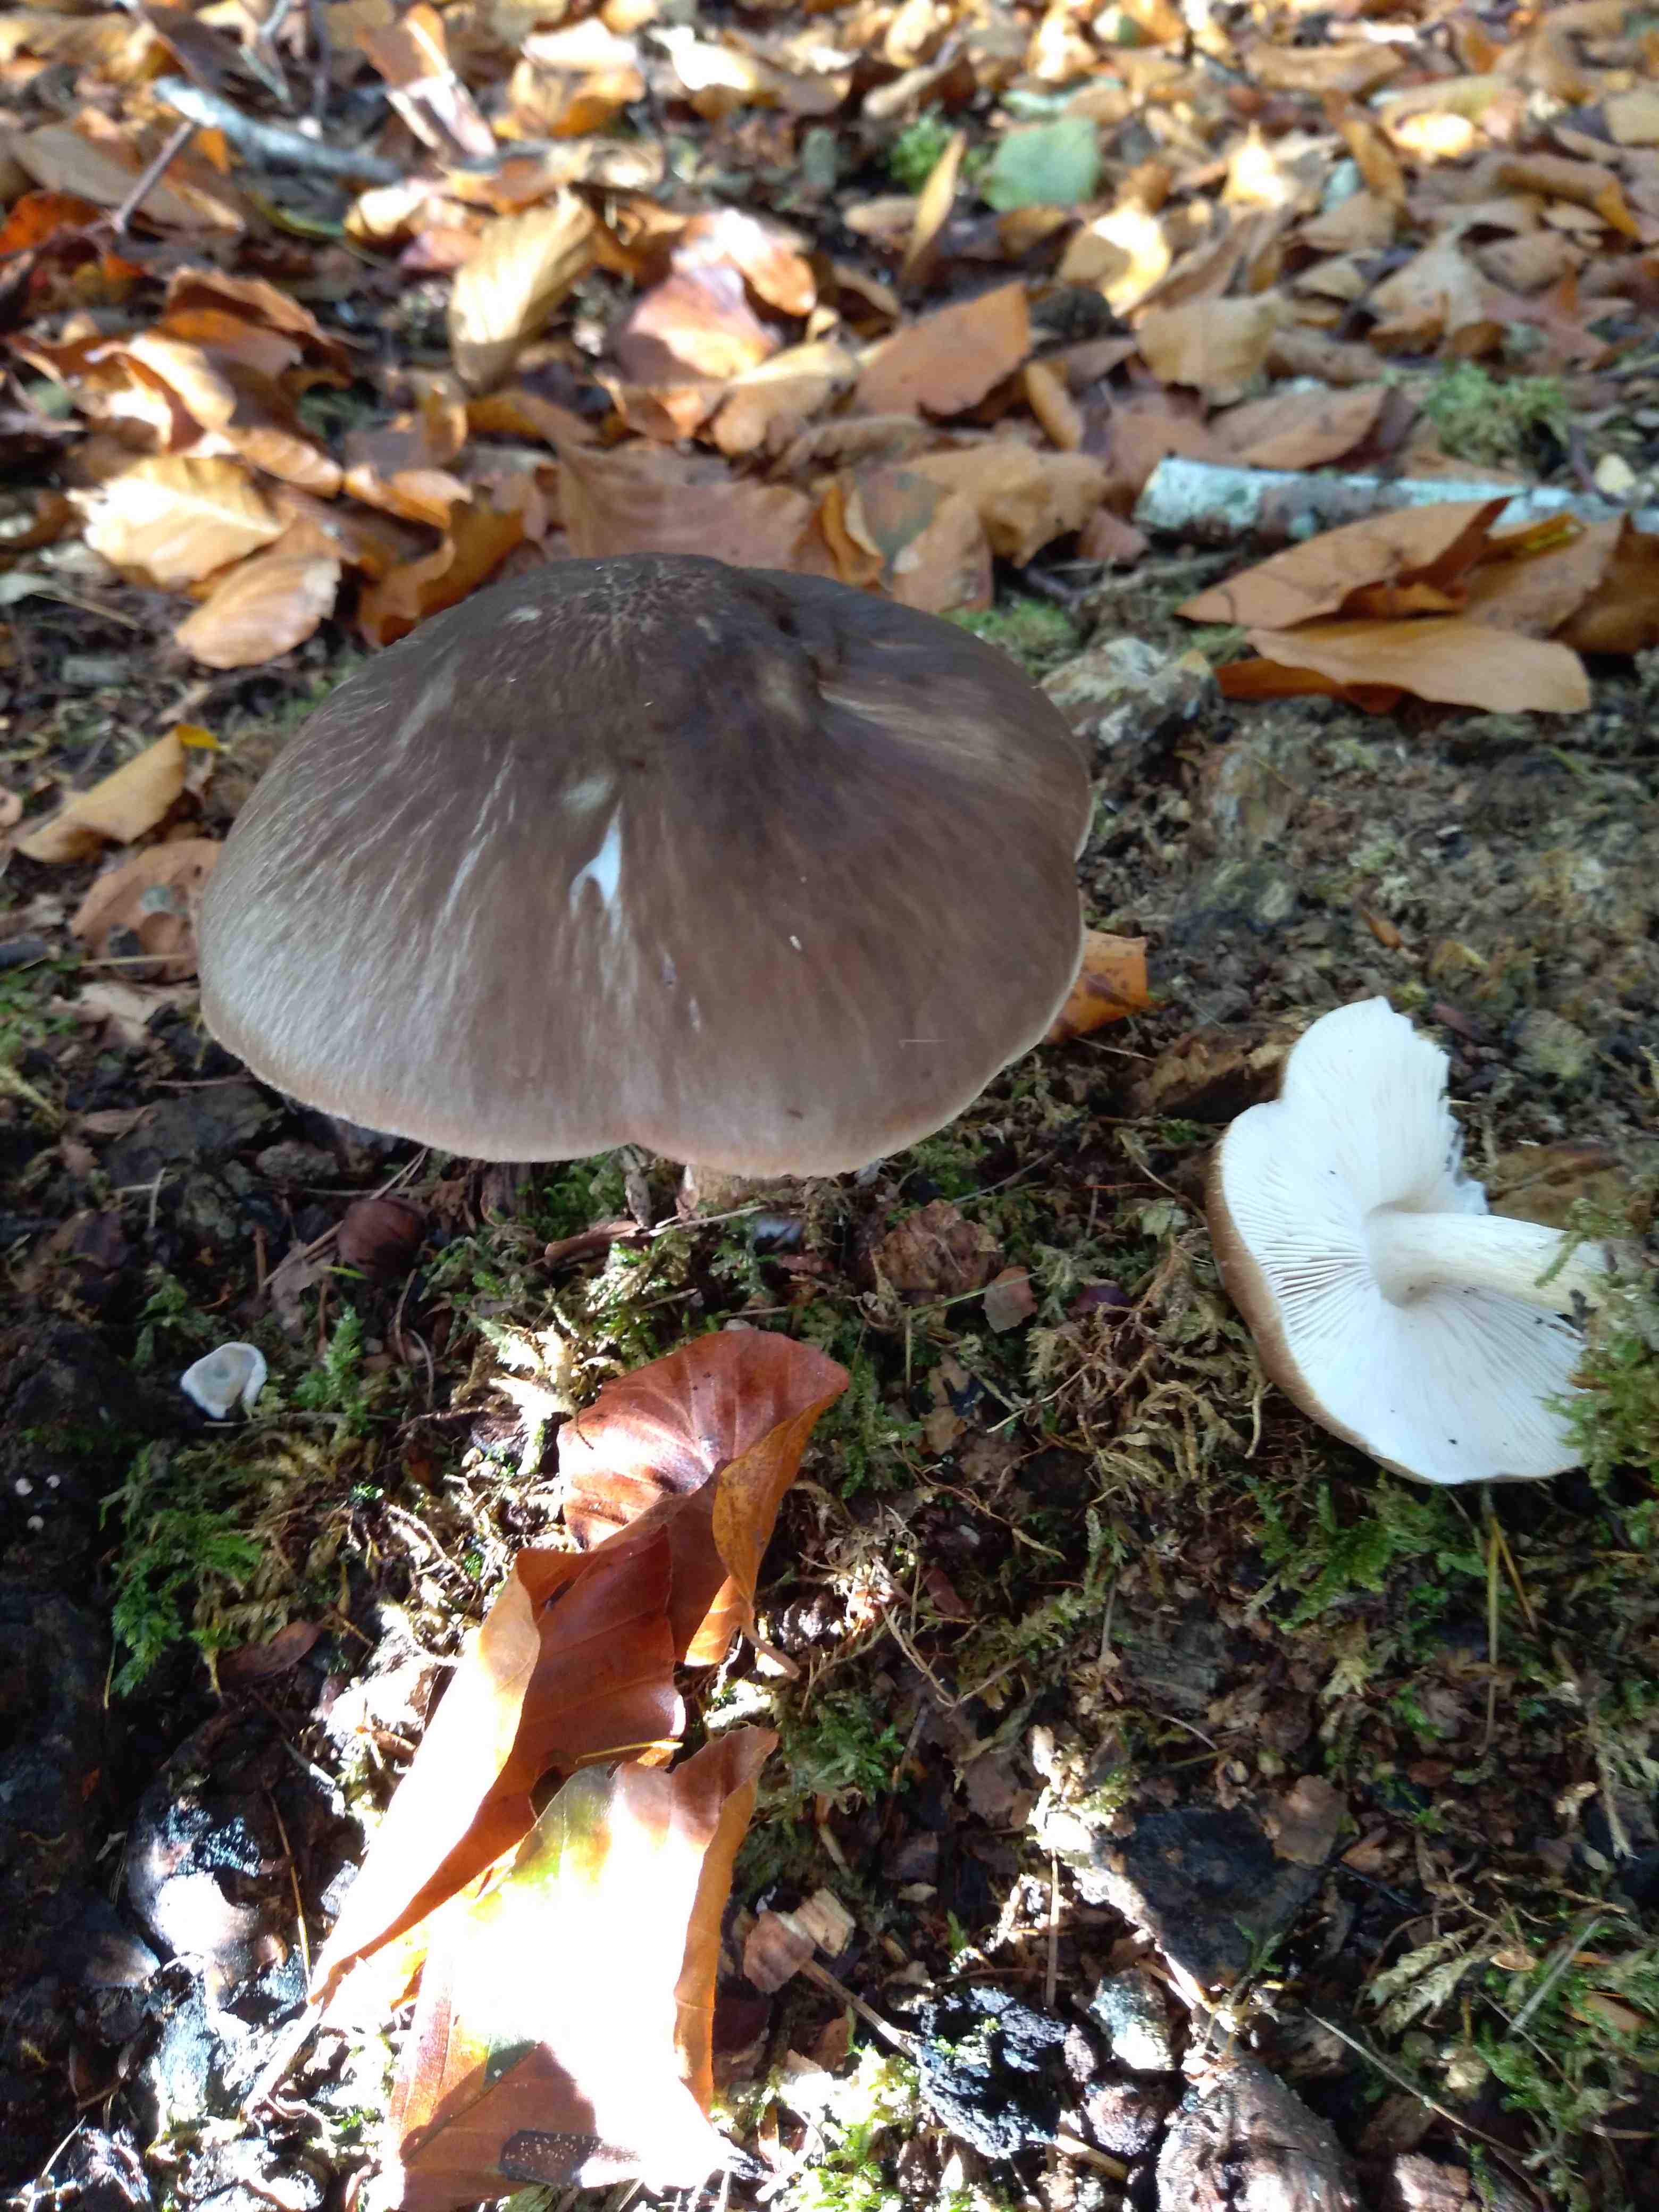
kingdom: Fungi
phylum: Basidiomycota
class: Agaricomycetes
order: Agaricales
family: Pluteaceae
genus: Pluteus
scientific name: Pluteus cervinus
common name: sodfarvet skærmhat
